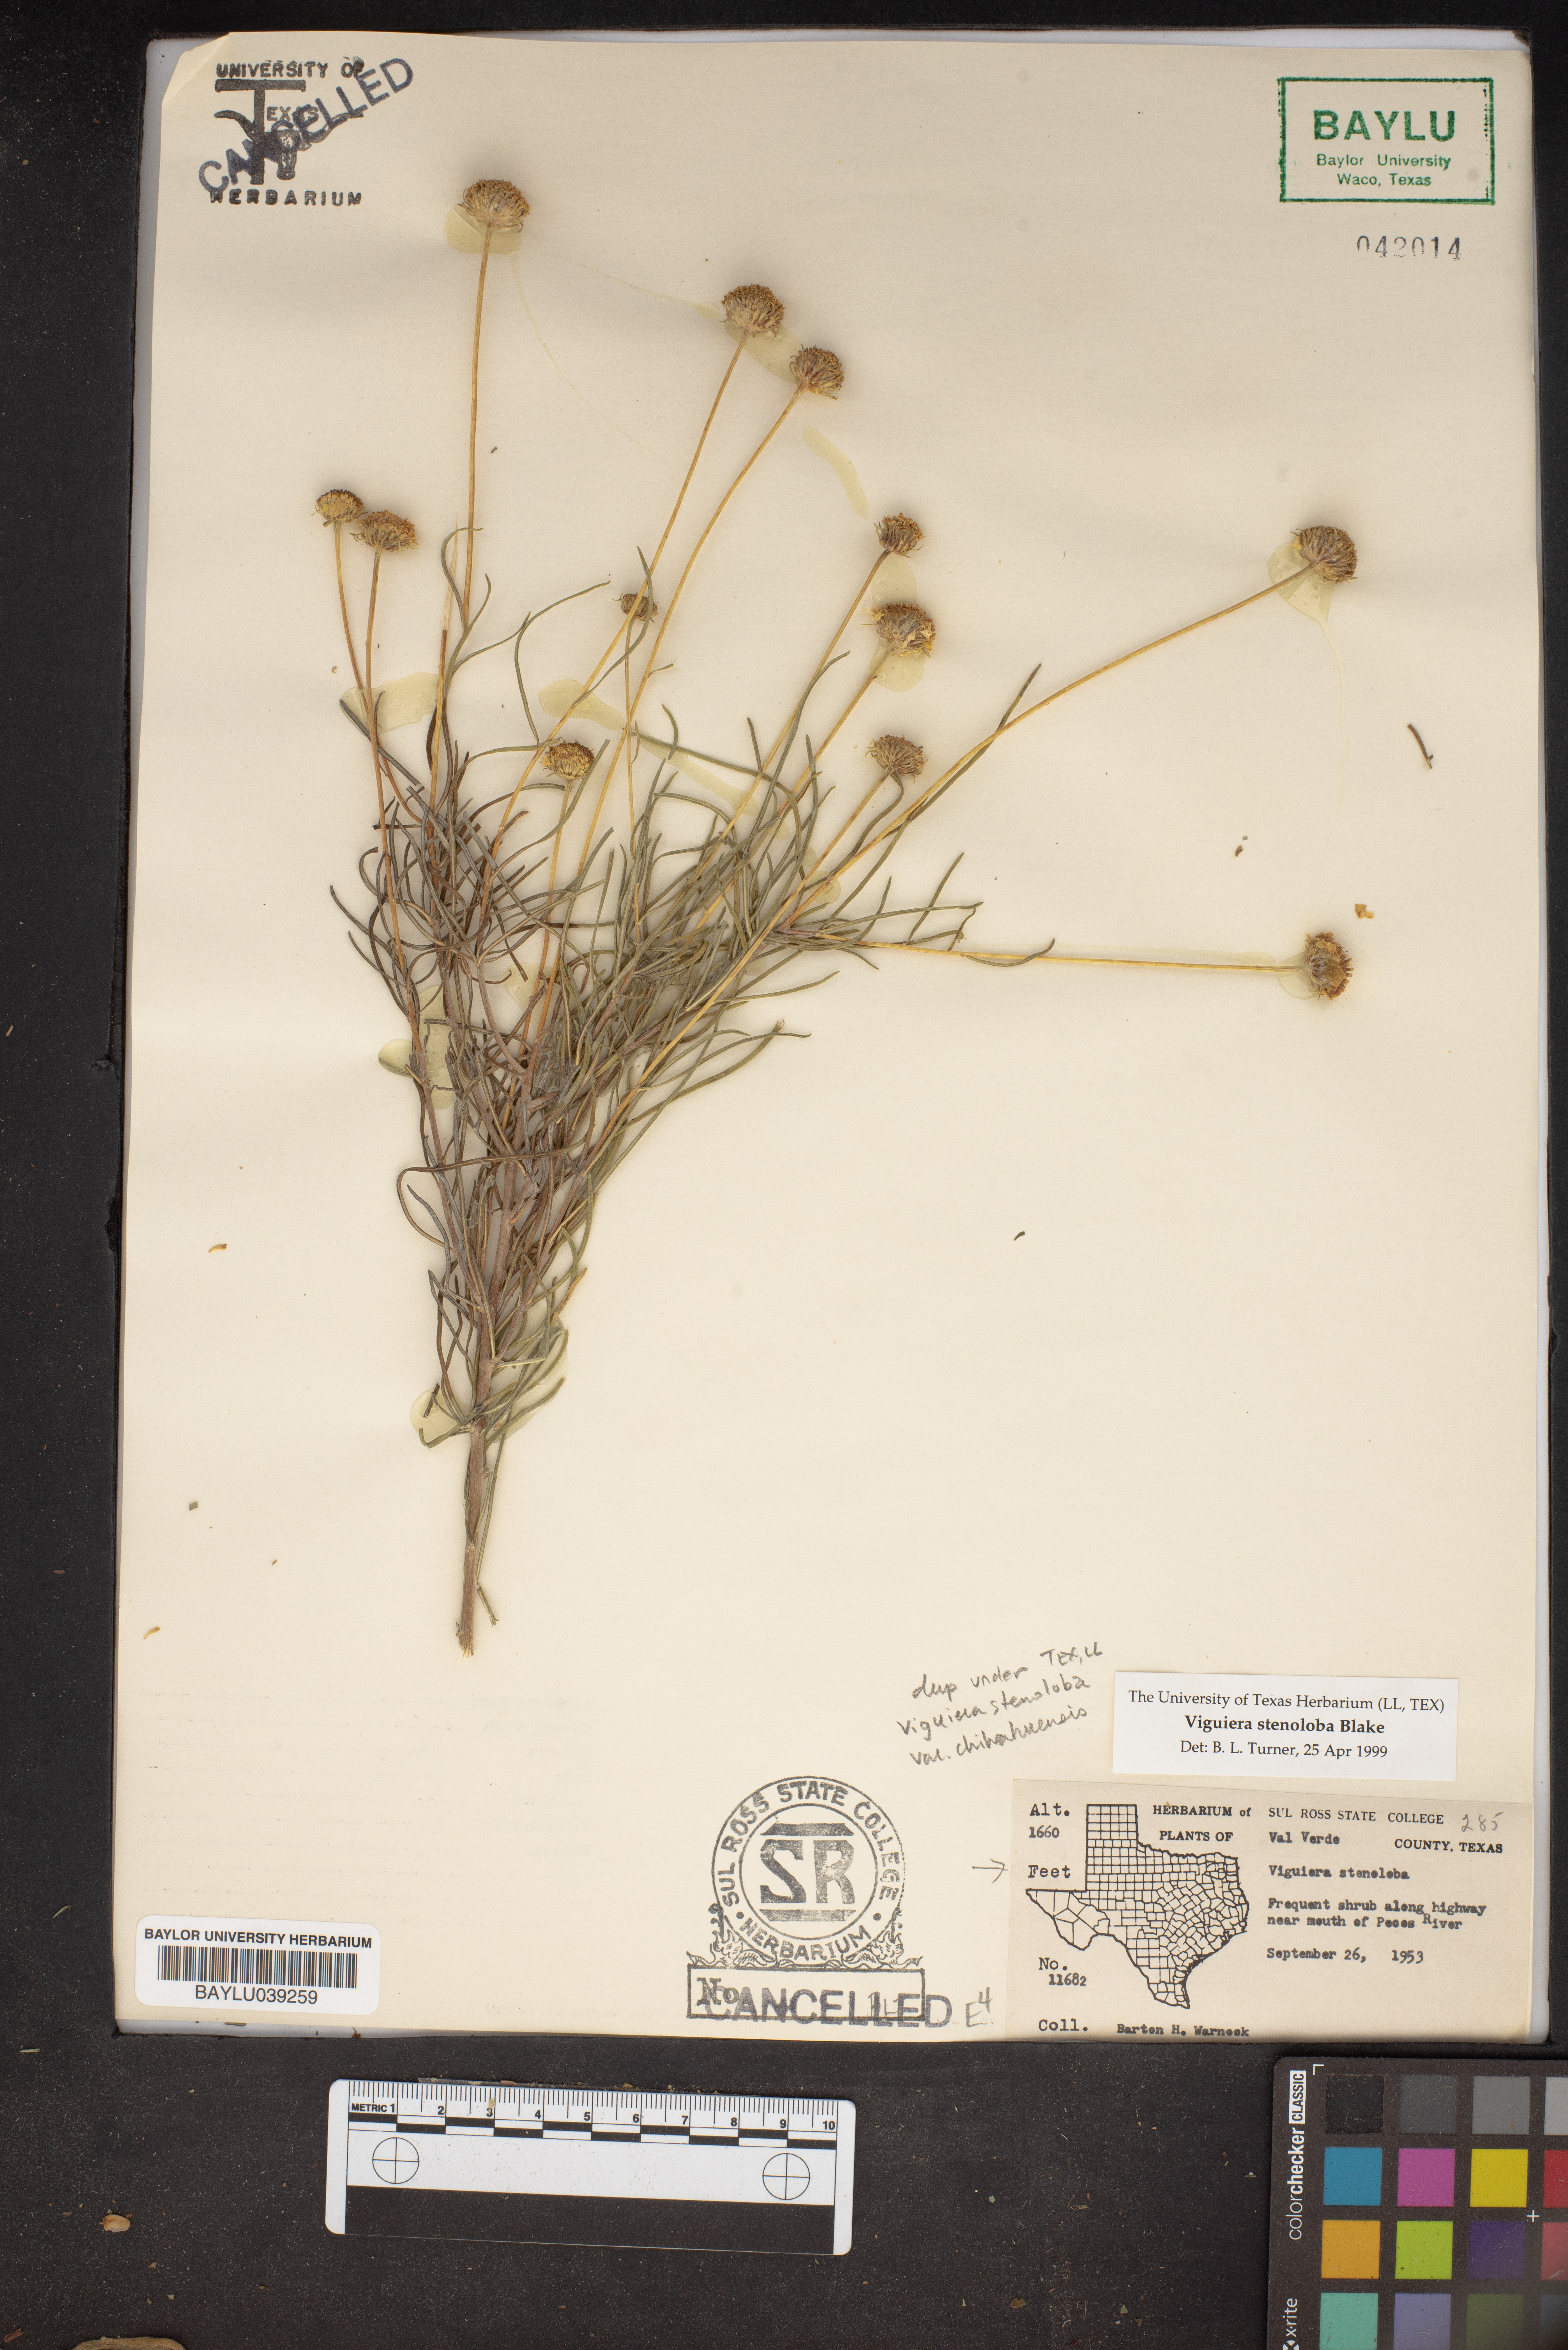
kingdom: Plantae
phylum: Tracheophyta
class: Magnoliopsida
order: Asterales
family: Asteraceae
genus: Sidneya
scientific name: Sidneya tenuifolia
